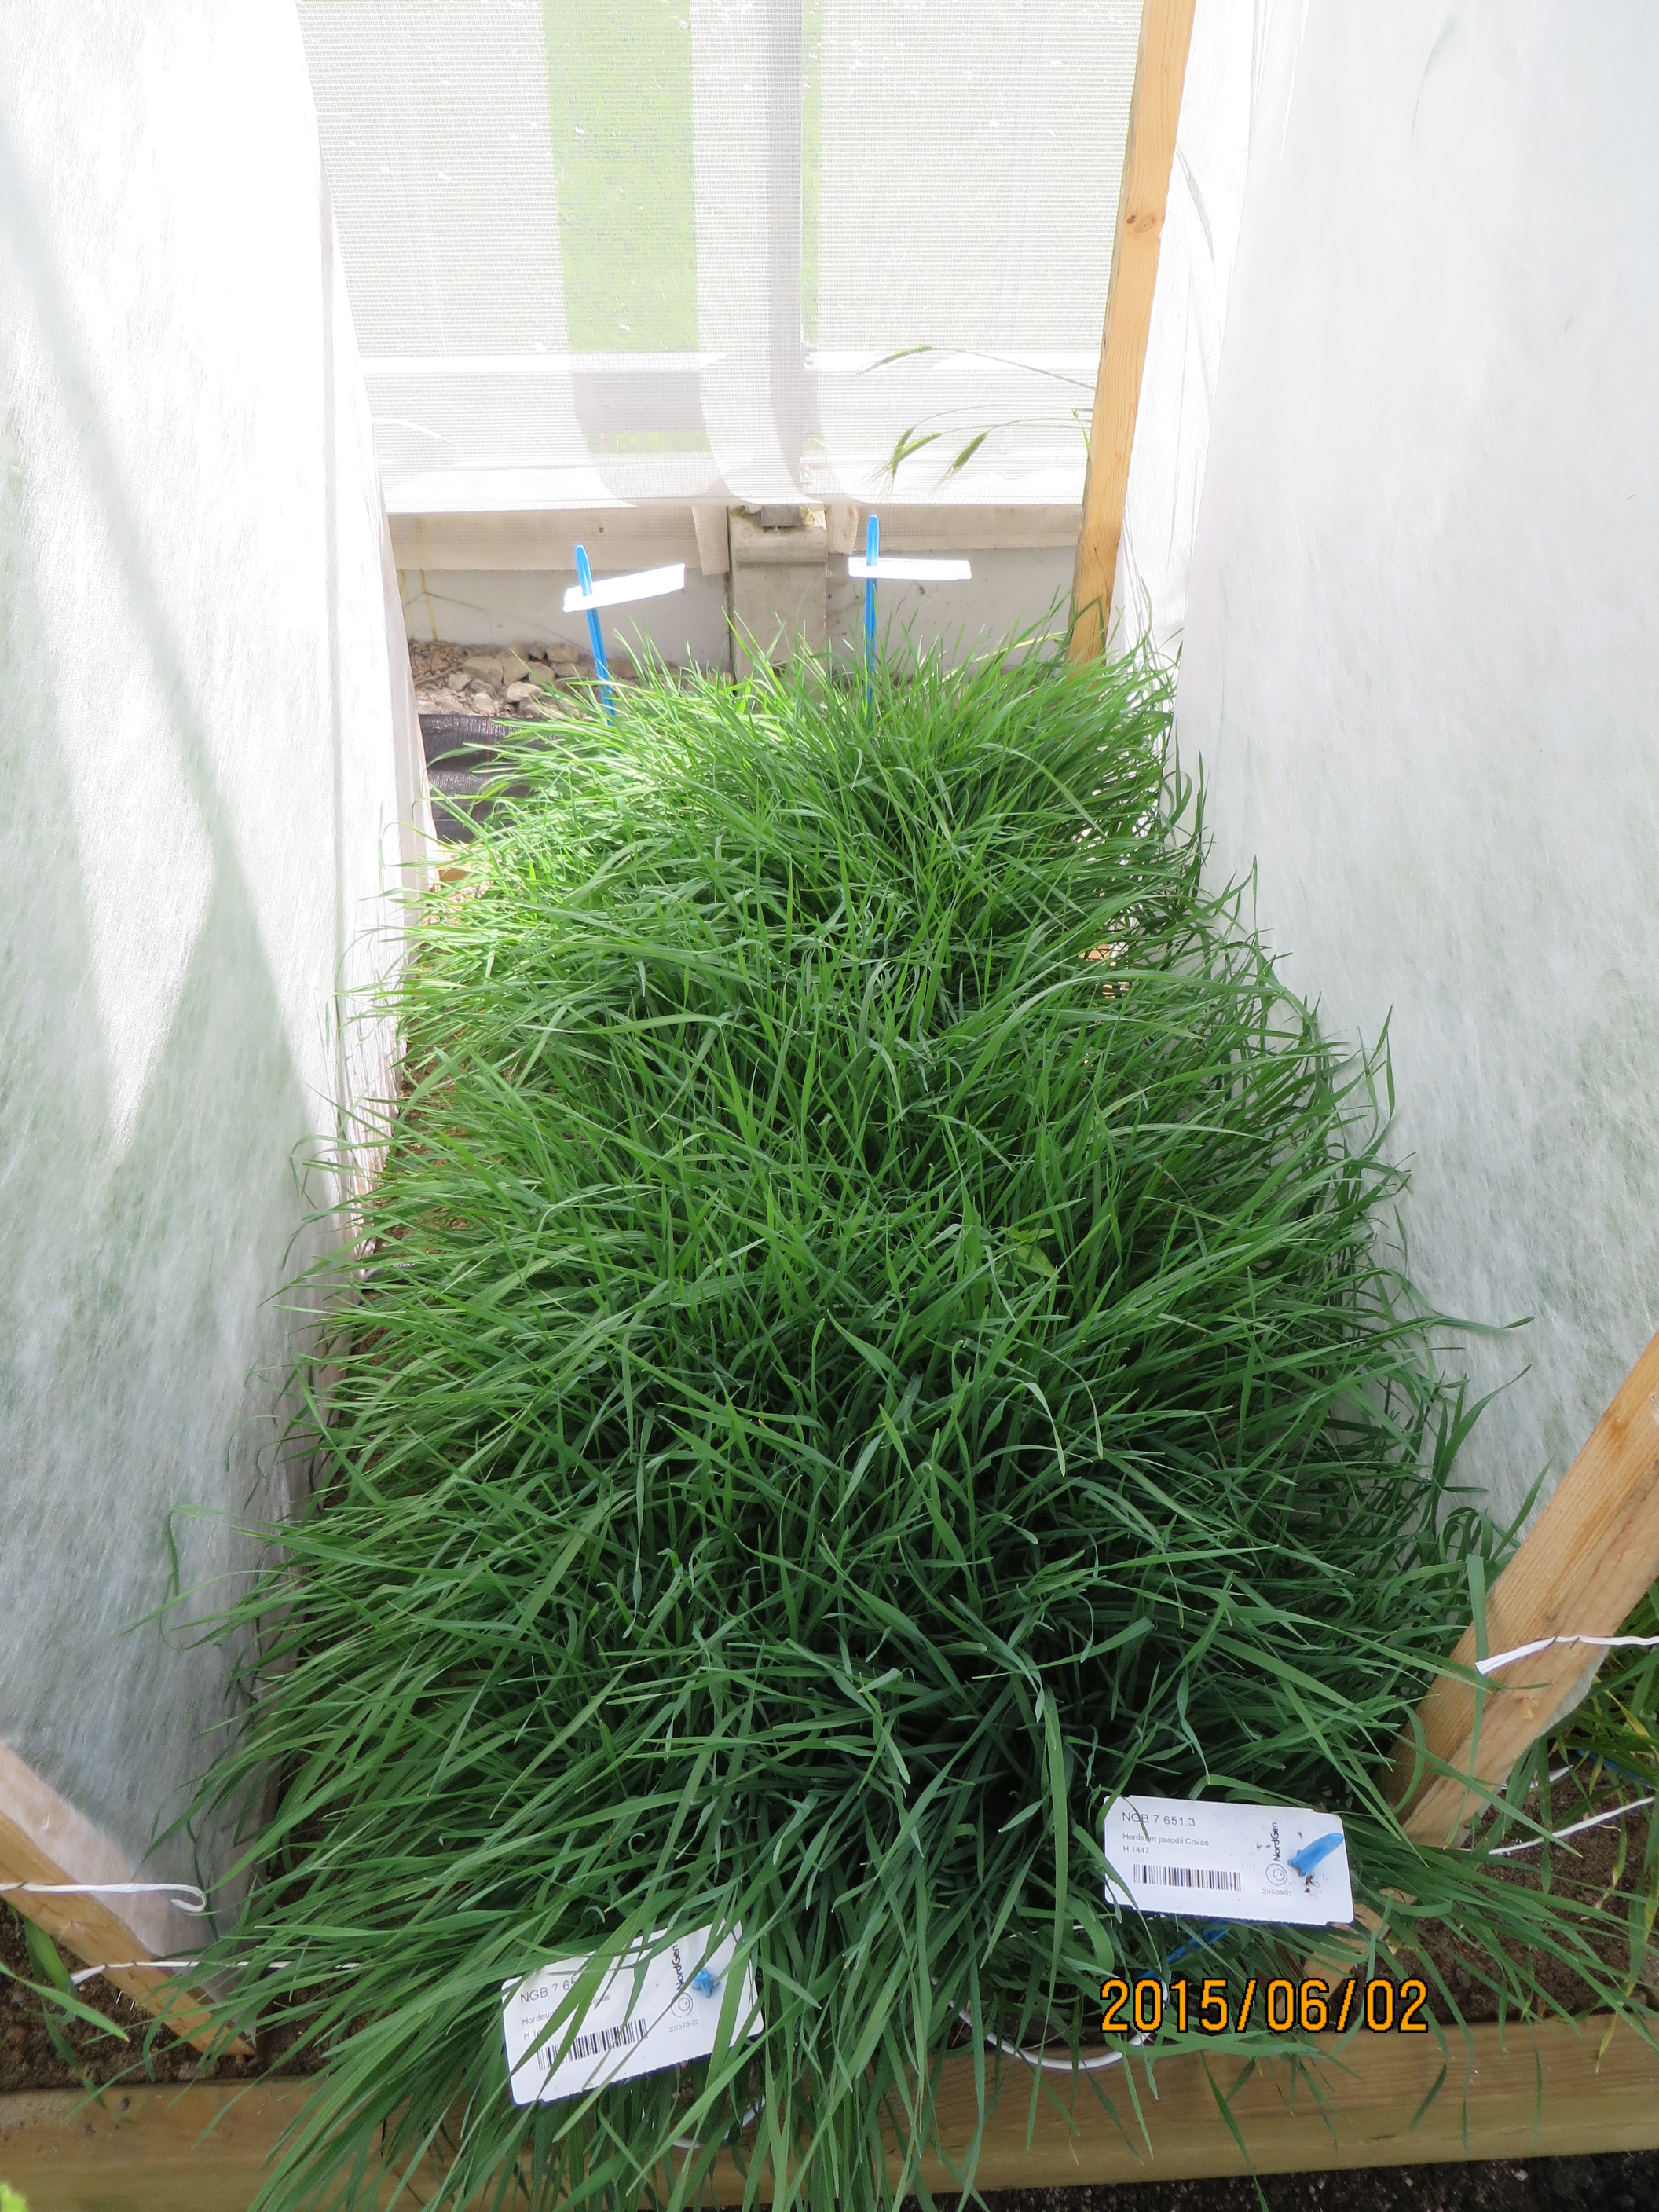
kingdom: Plantae
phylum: Tracheophyta
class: Liliopsida
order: Poales
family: Poaceae
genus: Hordeum
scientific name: Hordeum parodii
